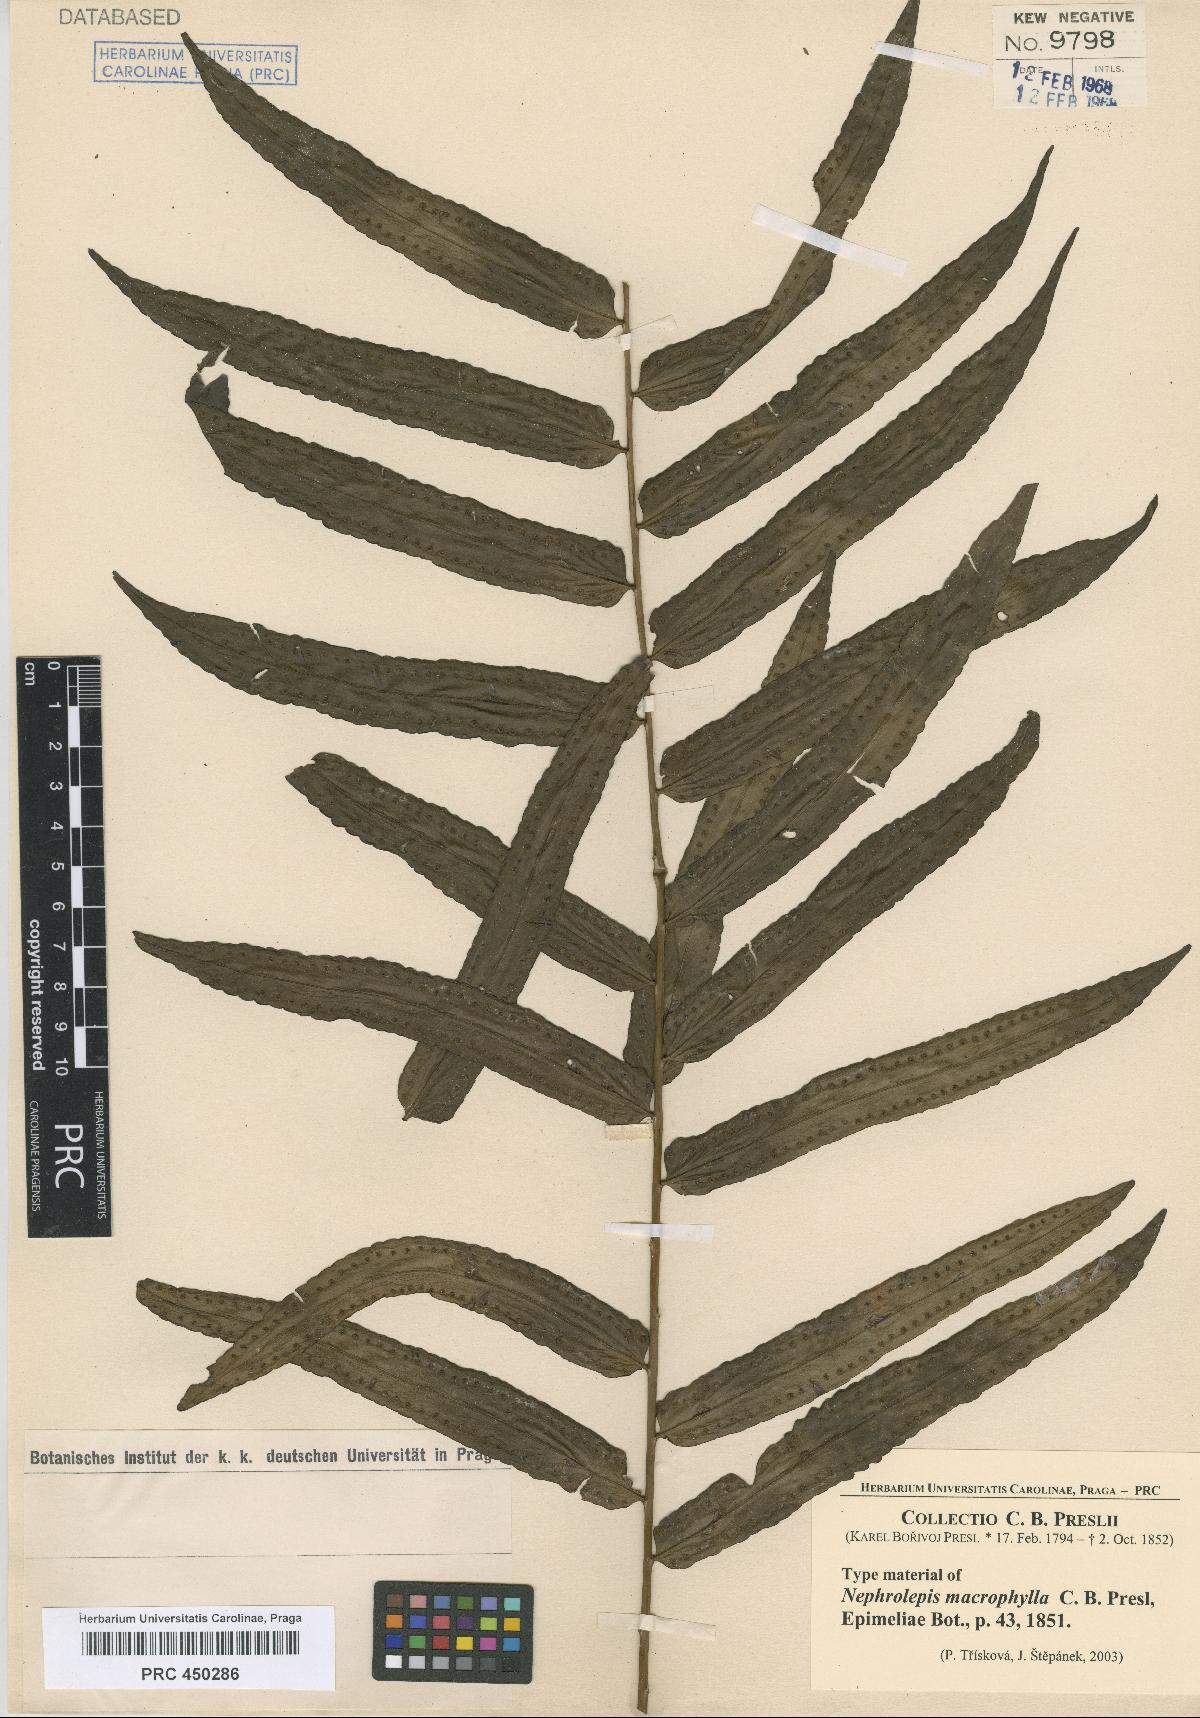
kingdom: Plantae
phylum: Tracheophyta
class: Polypodiopsida
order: Polypodiales
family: Nephrolepidaceae
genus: Nephrolepis
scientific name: Nephrolepis biserrata
